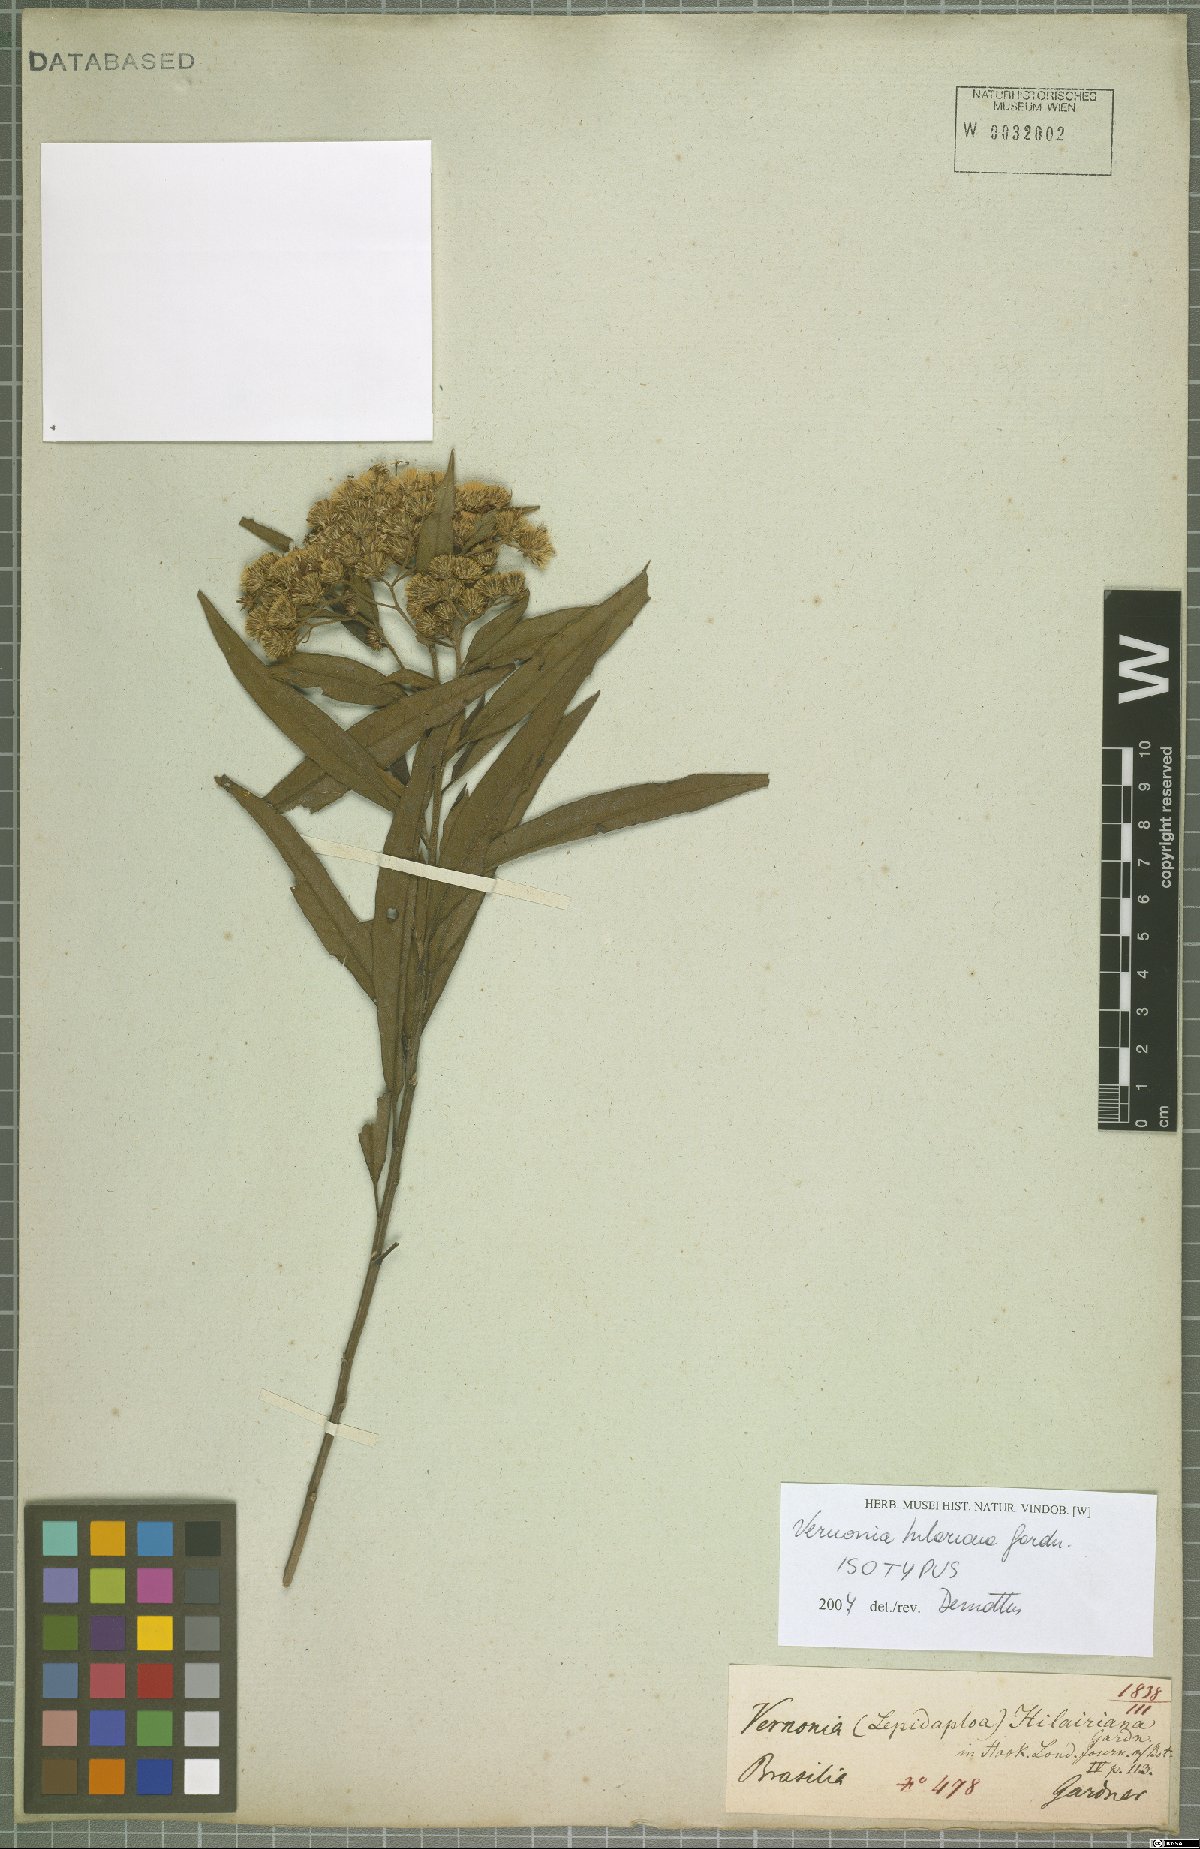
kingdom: Plantae
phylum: Tracheophyta
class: Magnoliopsida
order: Asterales
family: Asteraceae
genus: Vernonanthura
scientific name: Vernonanthura petiolaris
